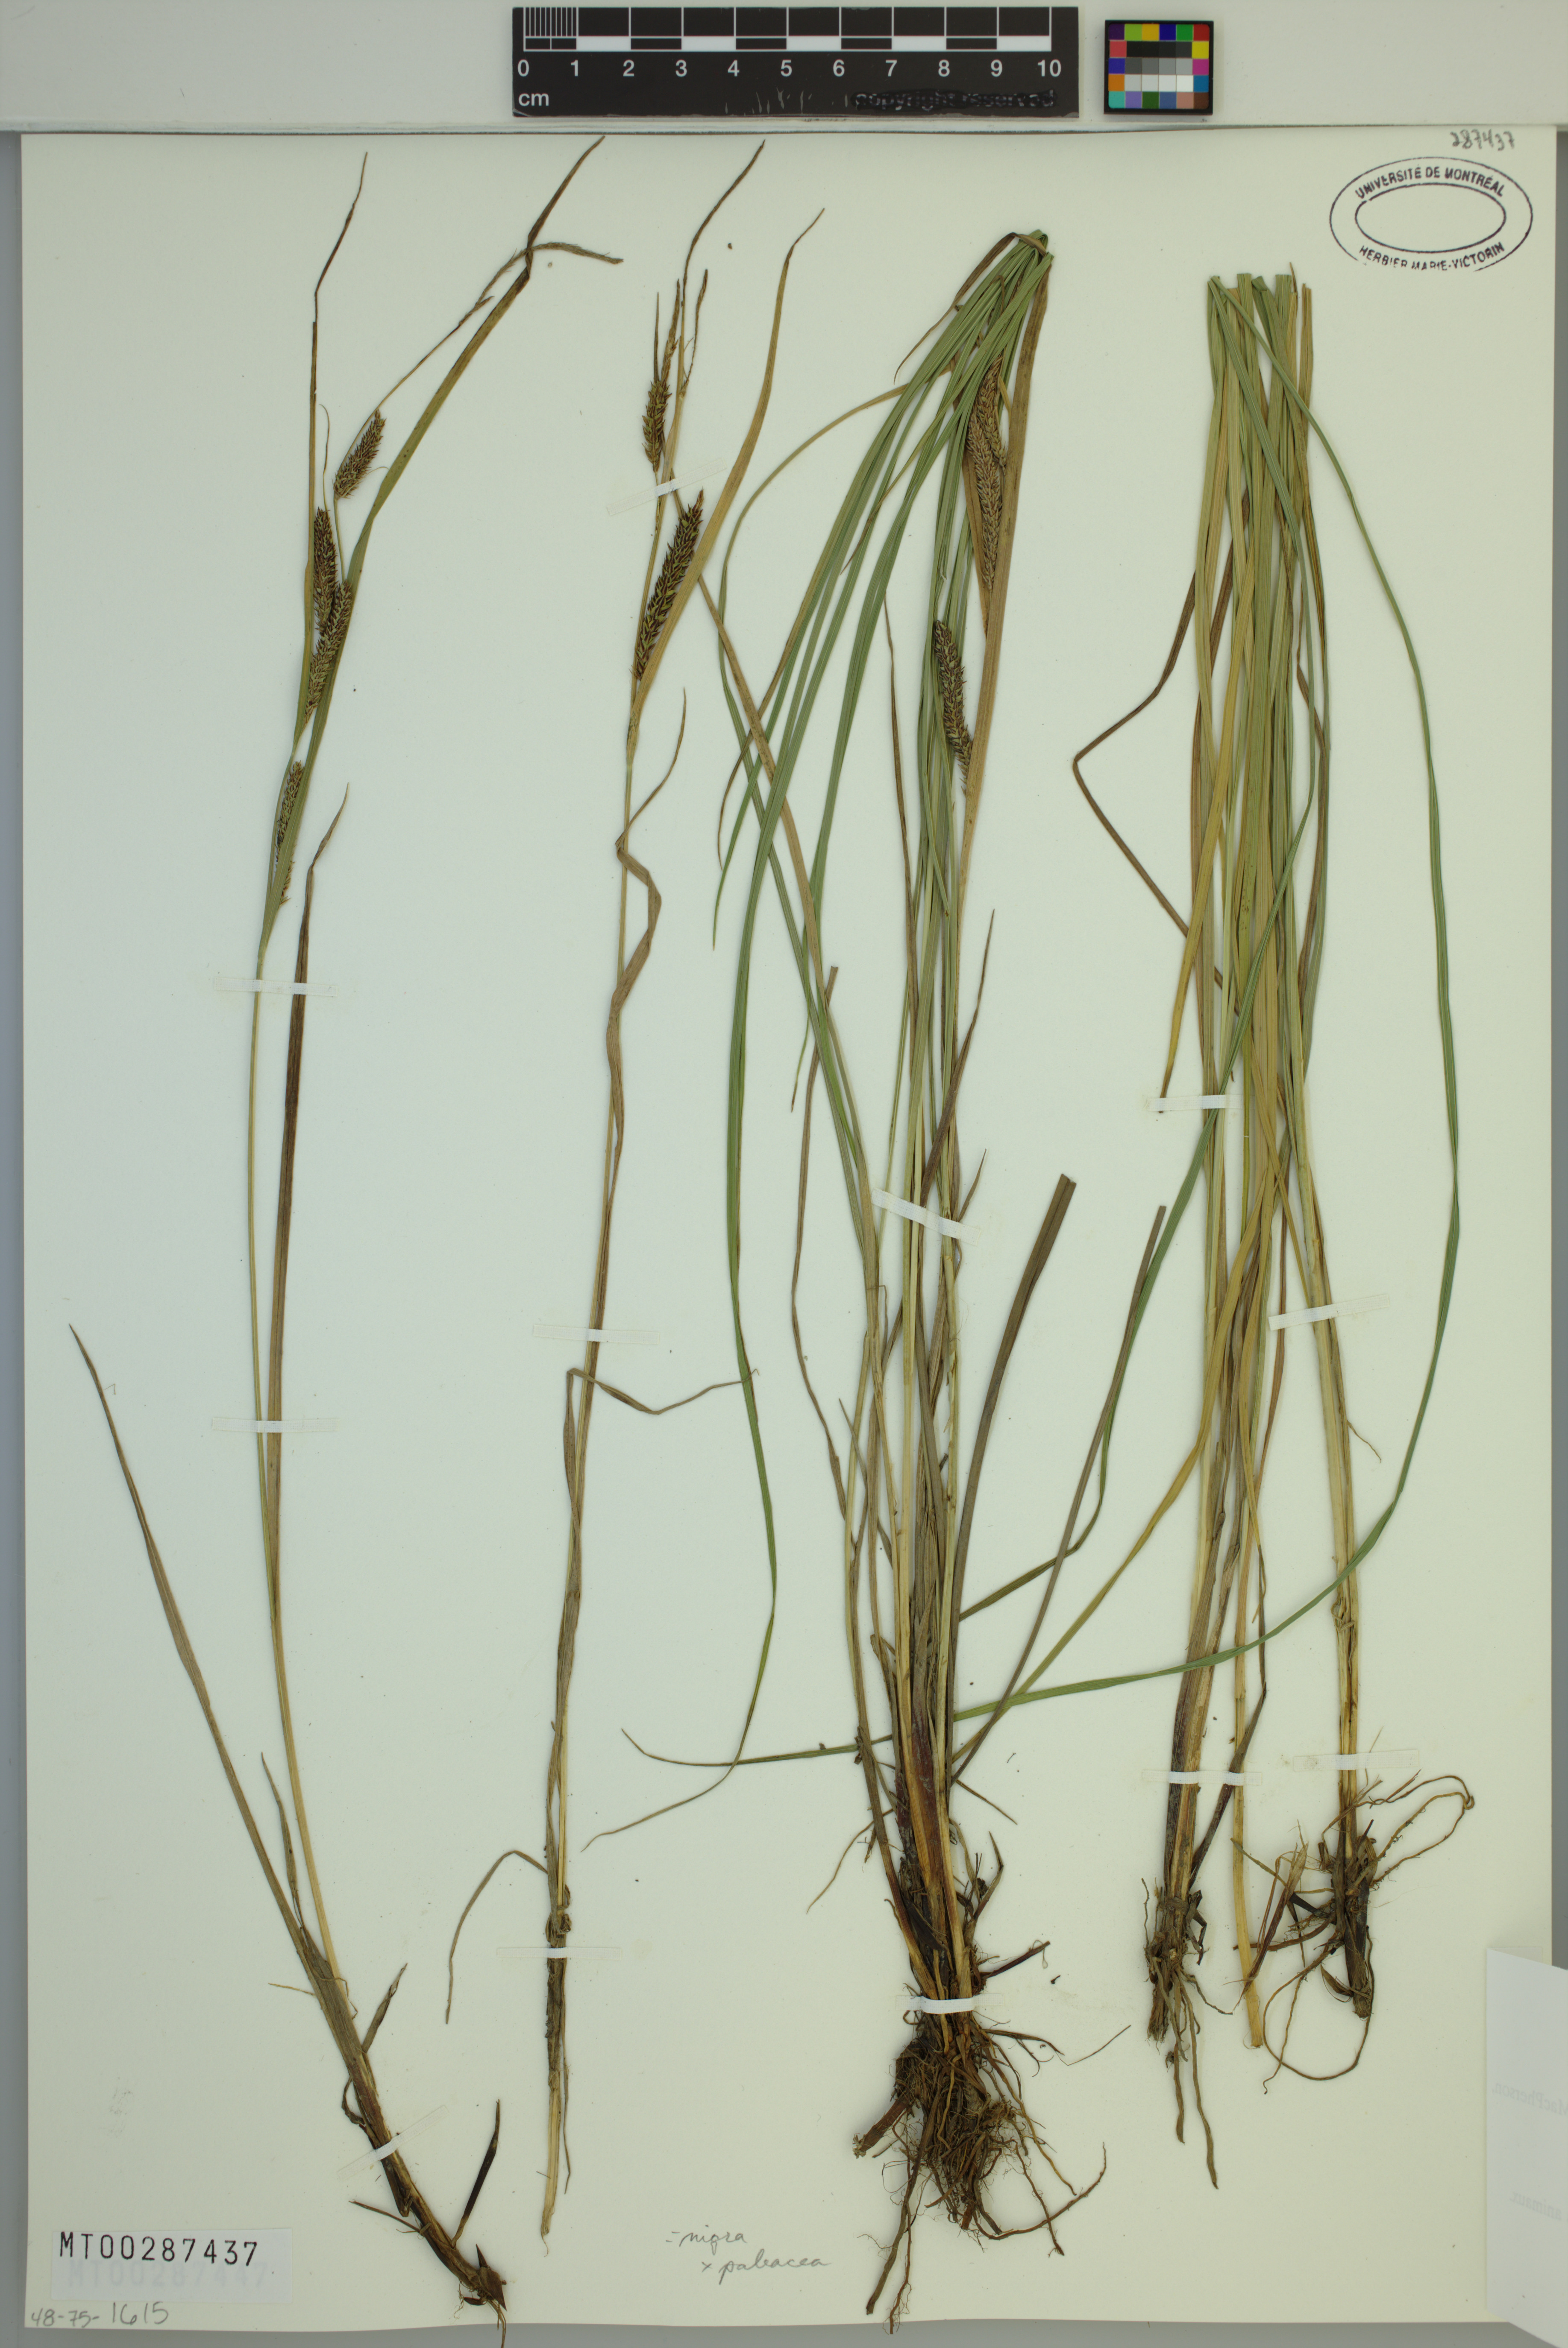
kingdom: Plantae
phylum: Tracheophyta
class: Liliopsida
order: Poales
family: Cyperaceae
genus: Carex
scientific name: Carex vacillans
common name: Sedge
